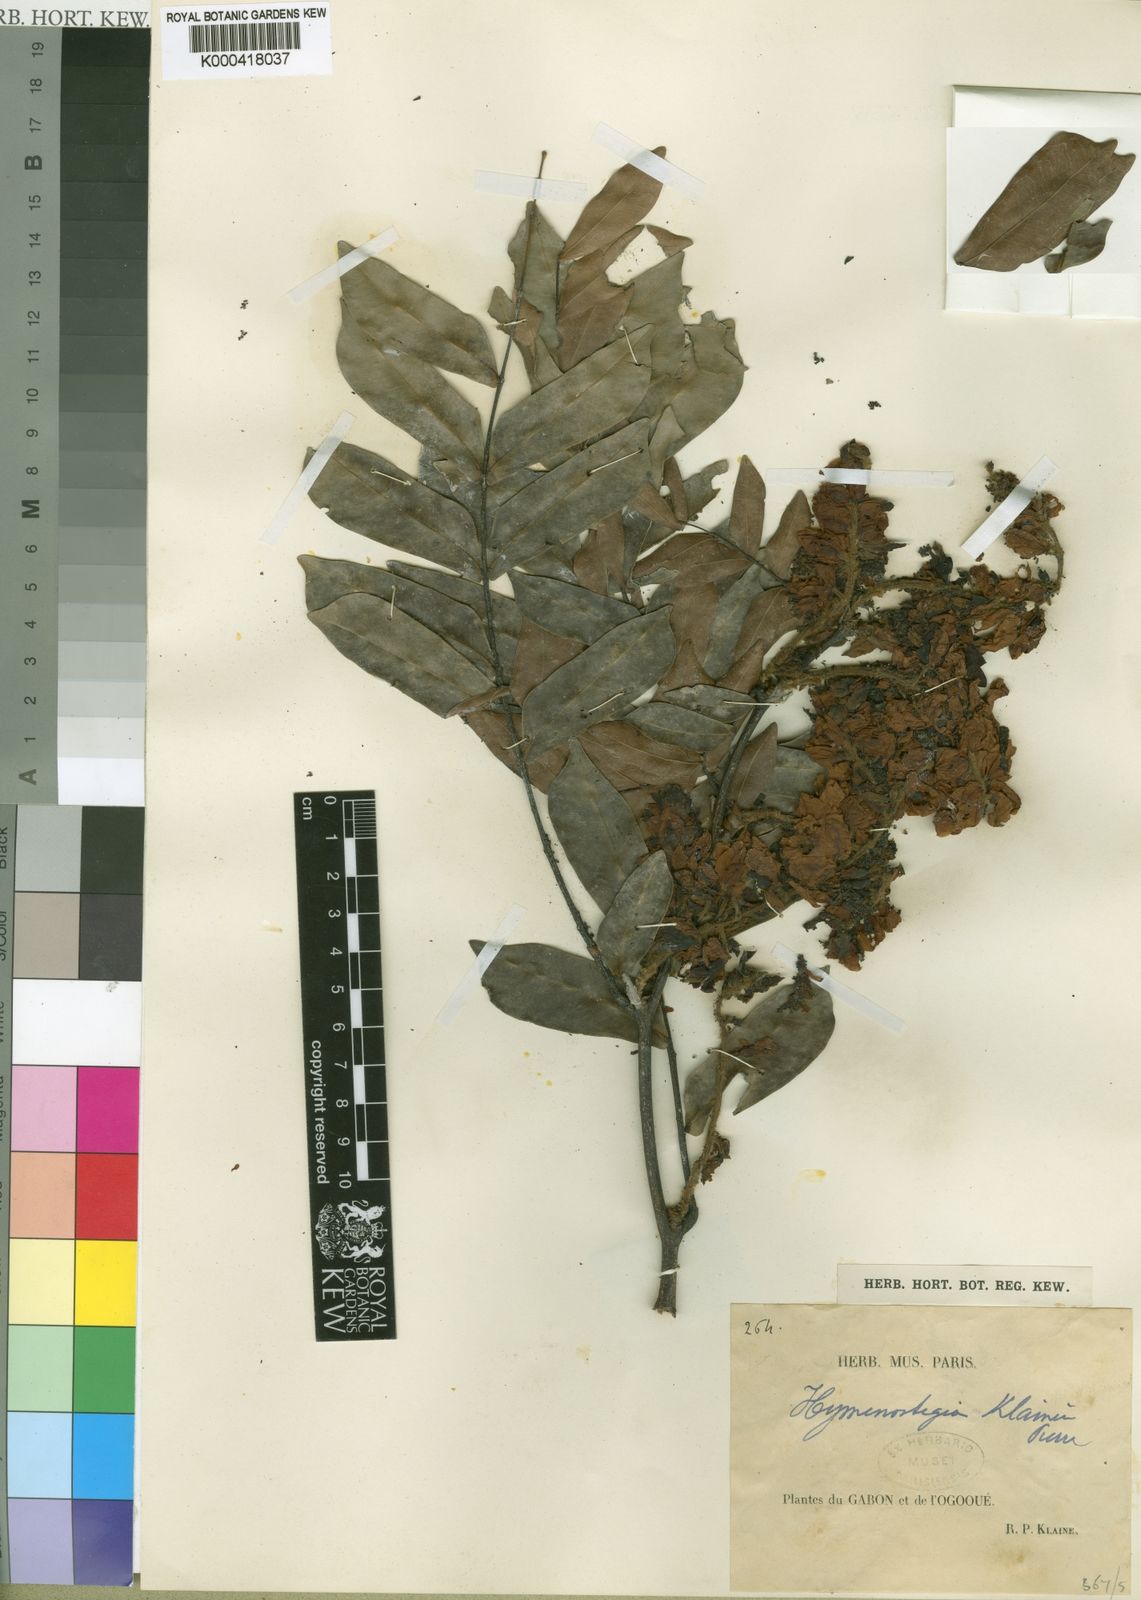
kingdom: Plantae
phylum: Tracheophyta
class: Magnoliopsida
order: Fabales
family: Fabaceae
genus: Hymenostegia
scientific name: Hymenostegia klainei
